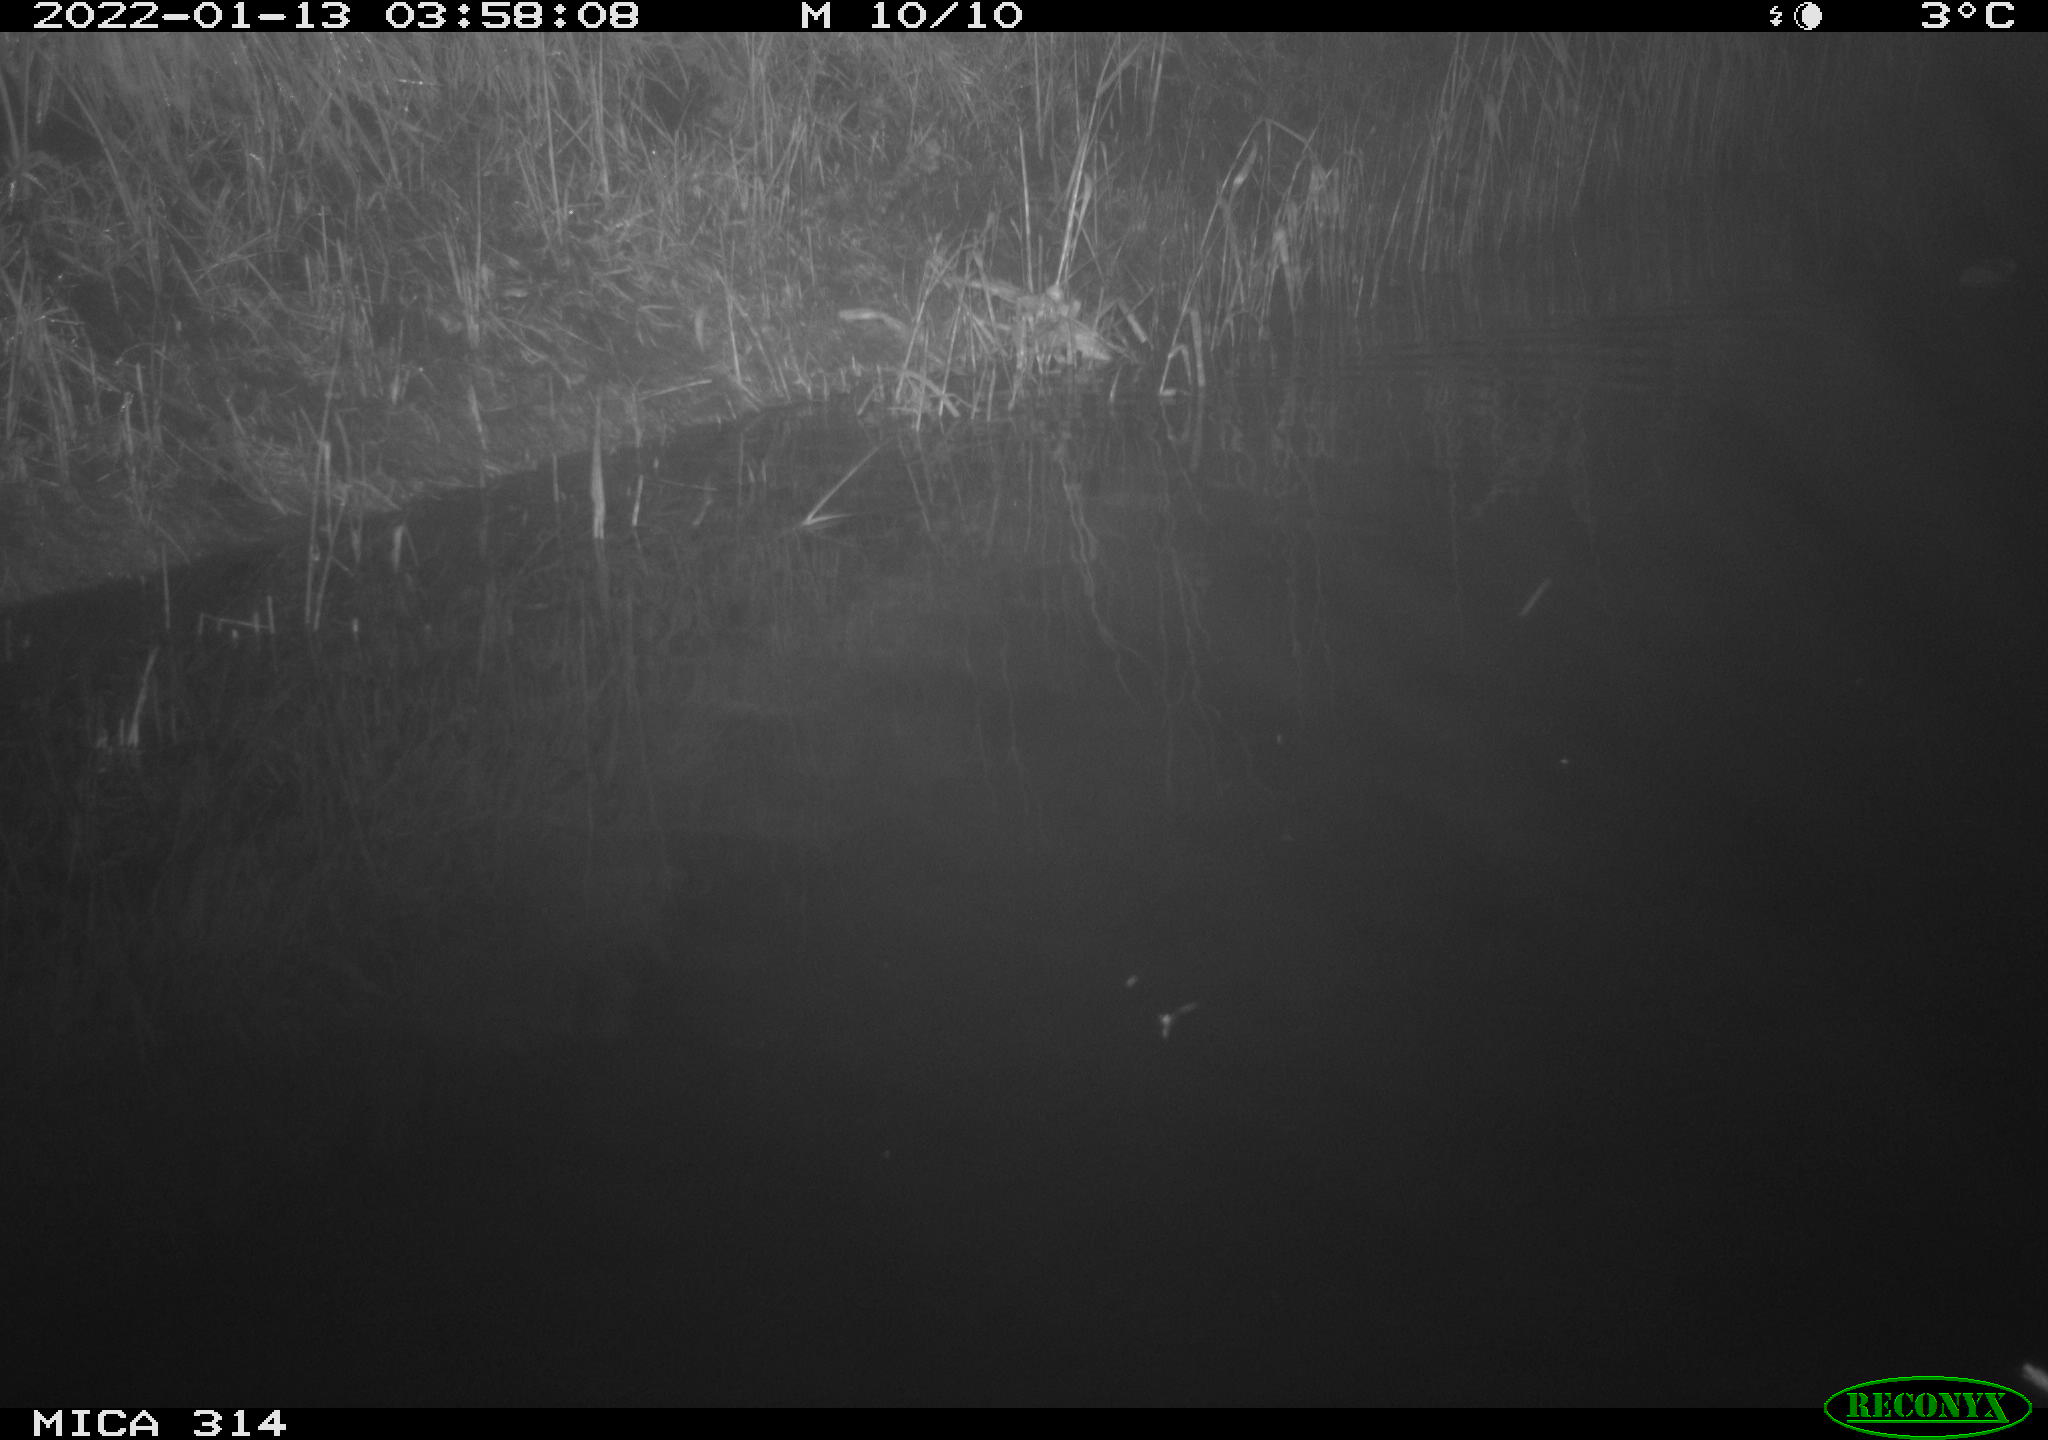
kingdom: Animalia
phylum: Chordata
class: Mammalia
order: Rodentia
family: Muridae
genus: Rattus
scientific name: Rattus norvegicus
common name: Brown rat
